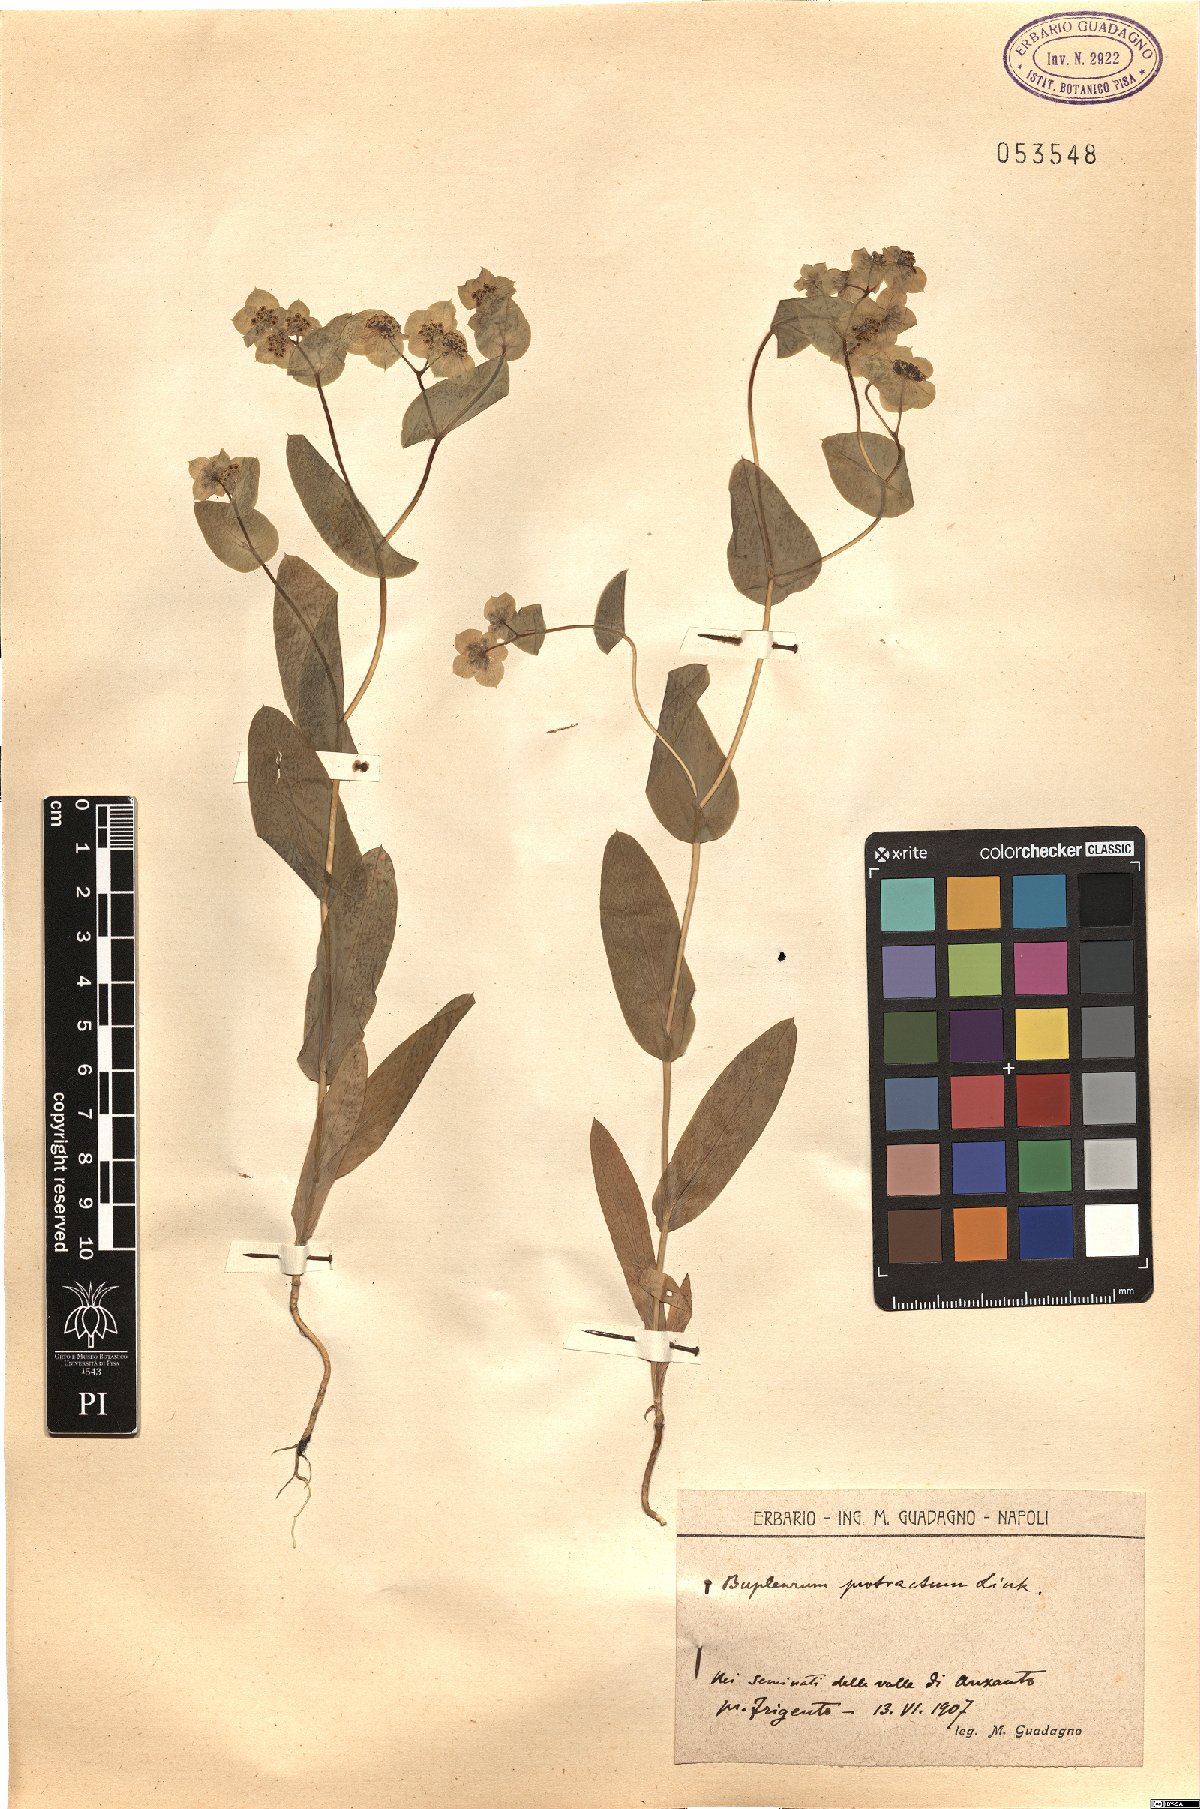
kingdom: Plantae
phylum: Tracheophyta
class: Magnoliopsida
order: Apiales
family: Apiaceae
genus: Bupleurum
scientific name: Bupleurum subovatum
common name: False thorow-wax
